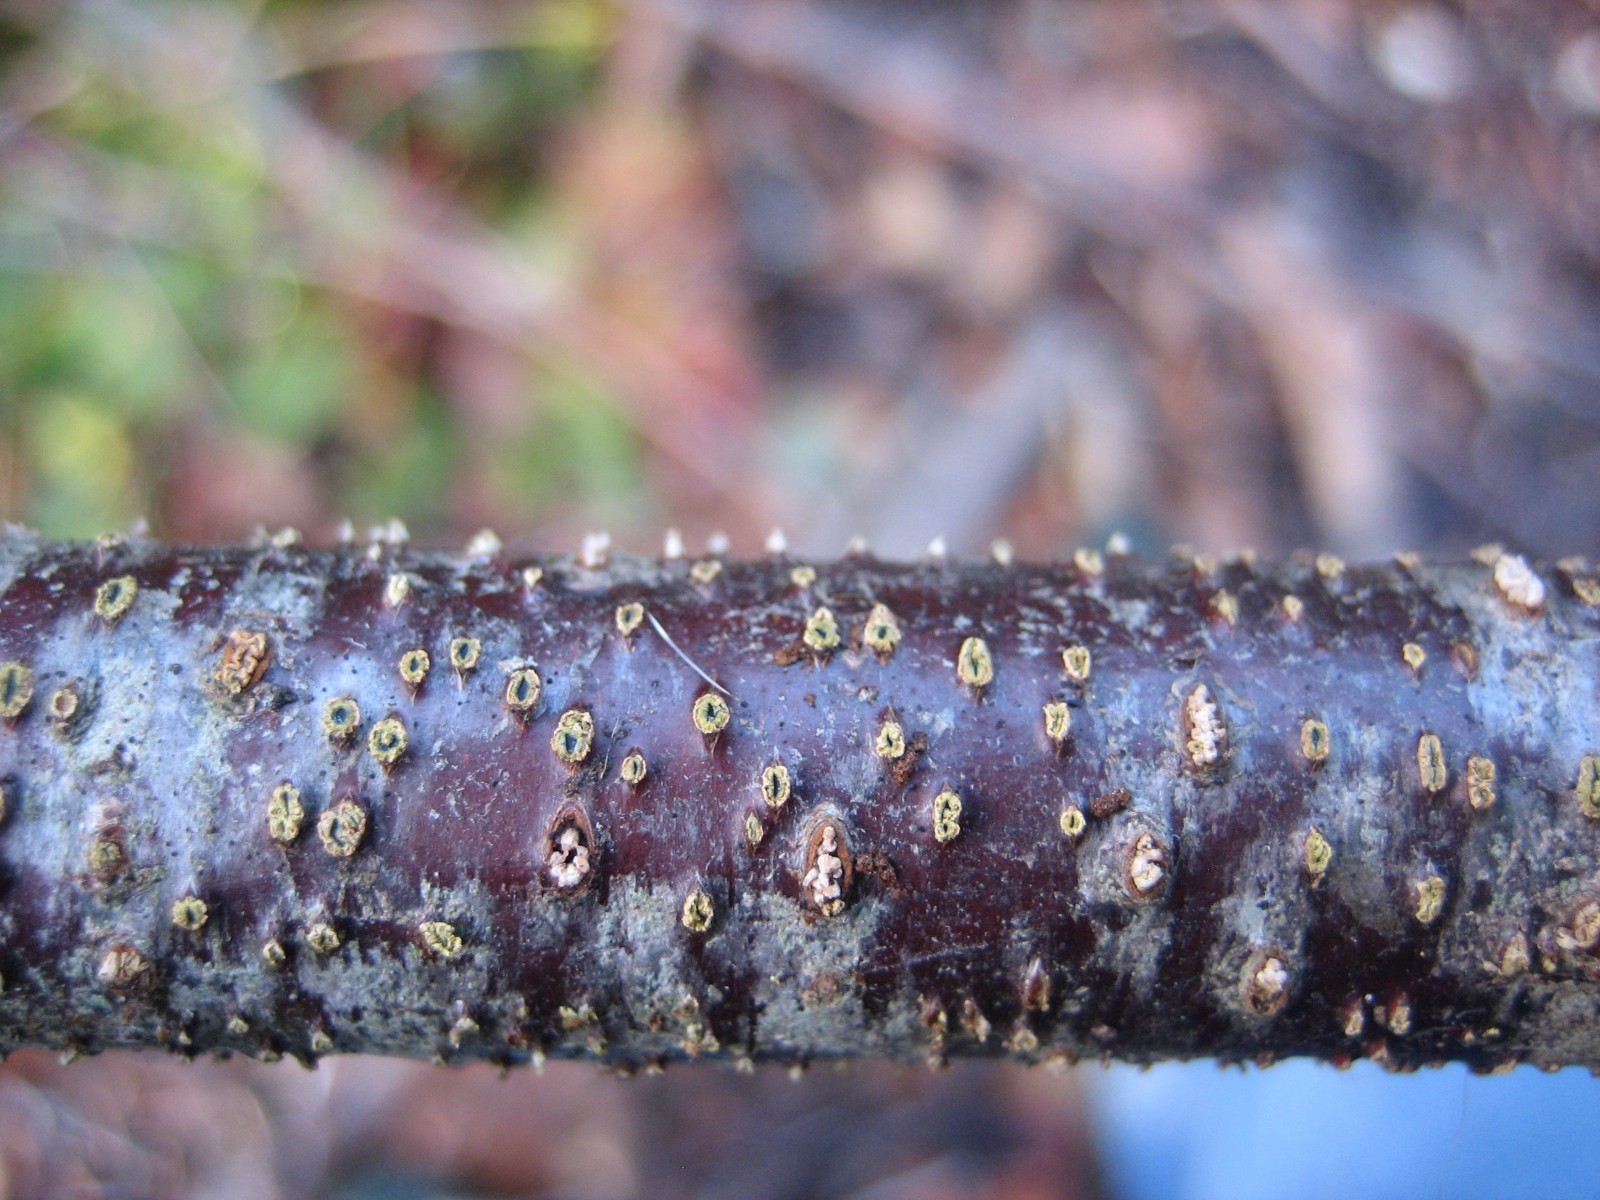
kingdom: Fungi
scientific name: Fungi
